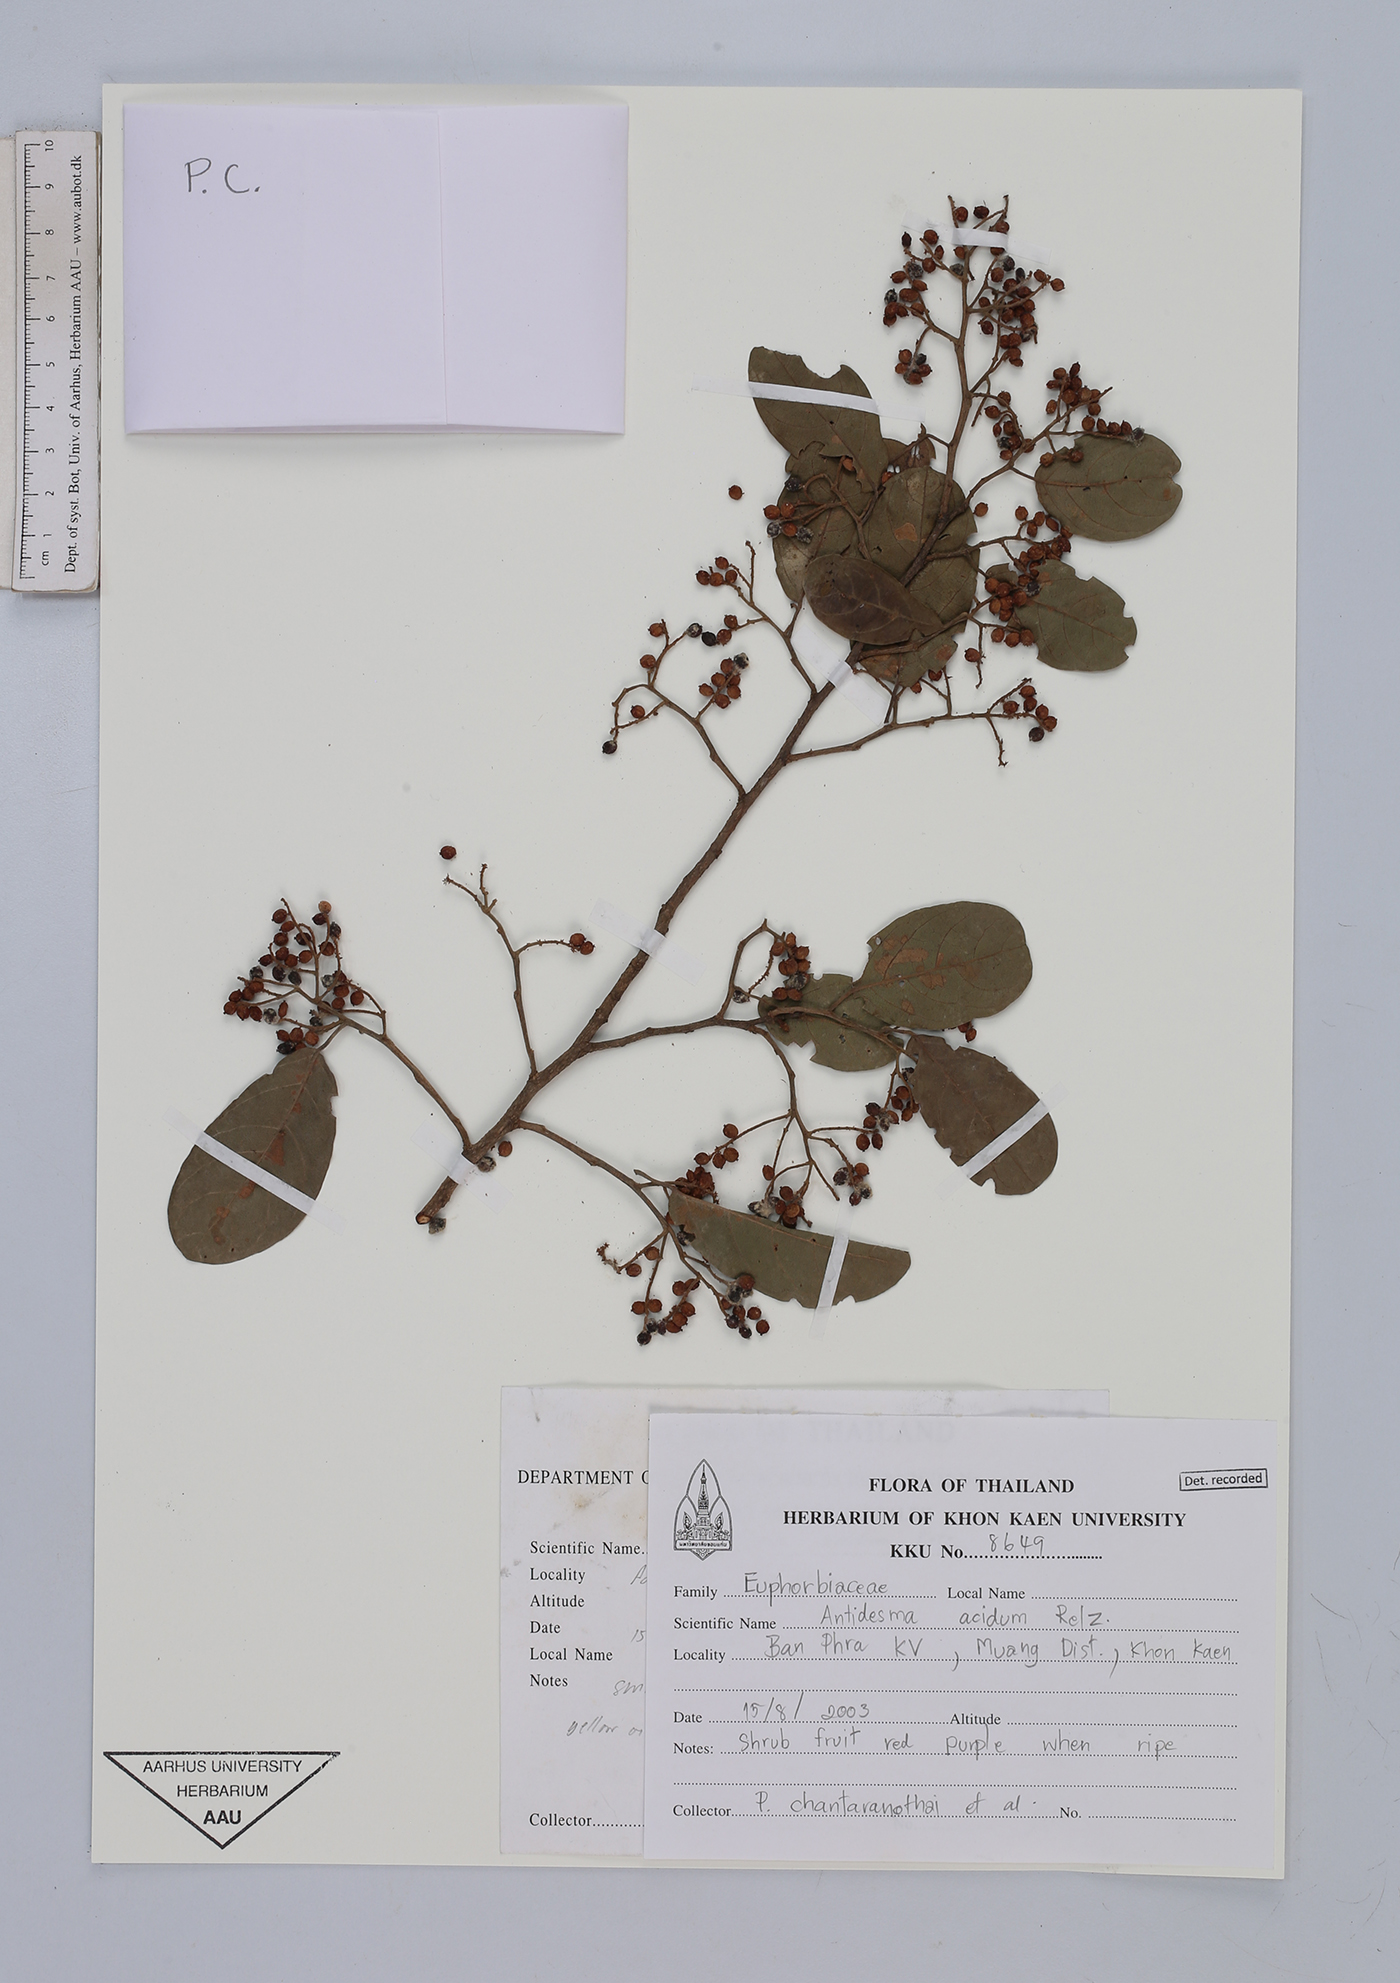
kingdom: Plantae
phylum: Tracheophyta
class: Magnoliopsida
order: Malpighiales
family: Phyllanthaceae
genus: Antidesma
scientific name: Antidesma acidum
